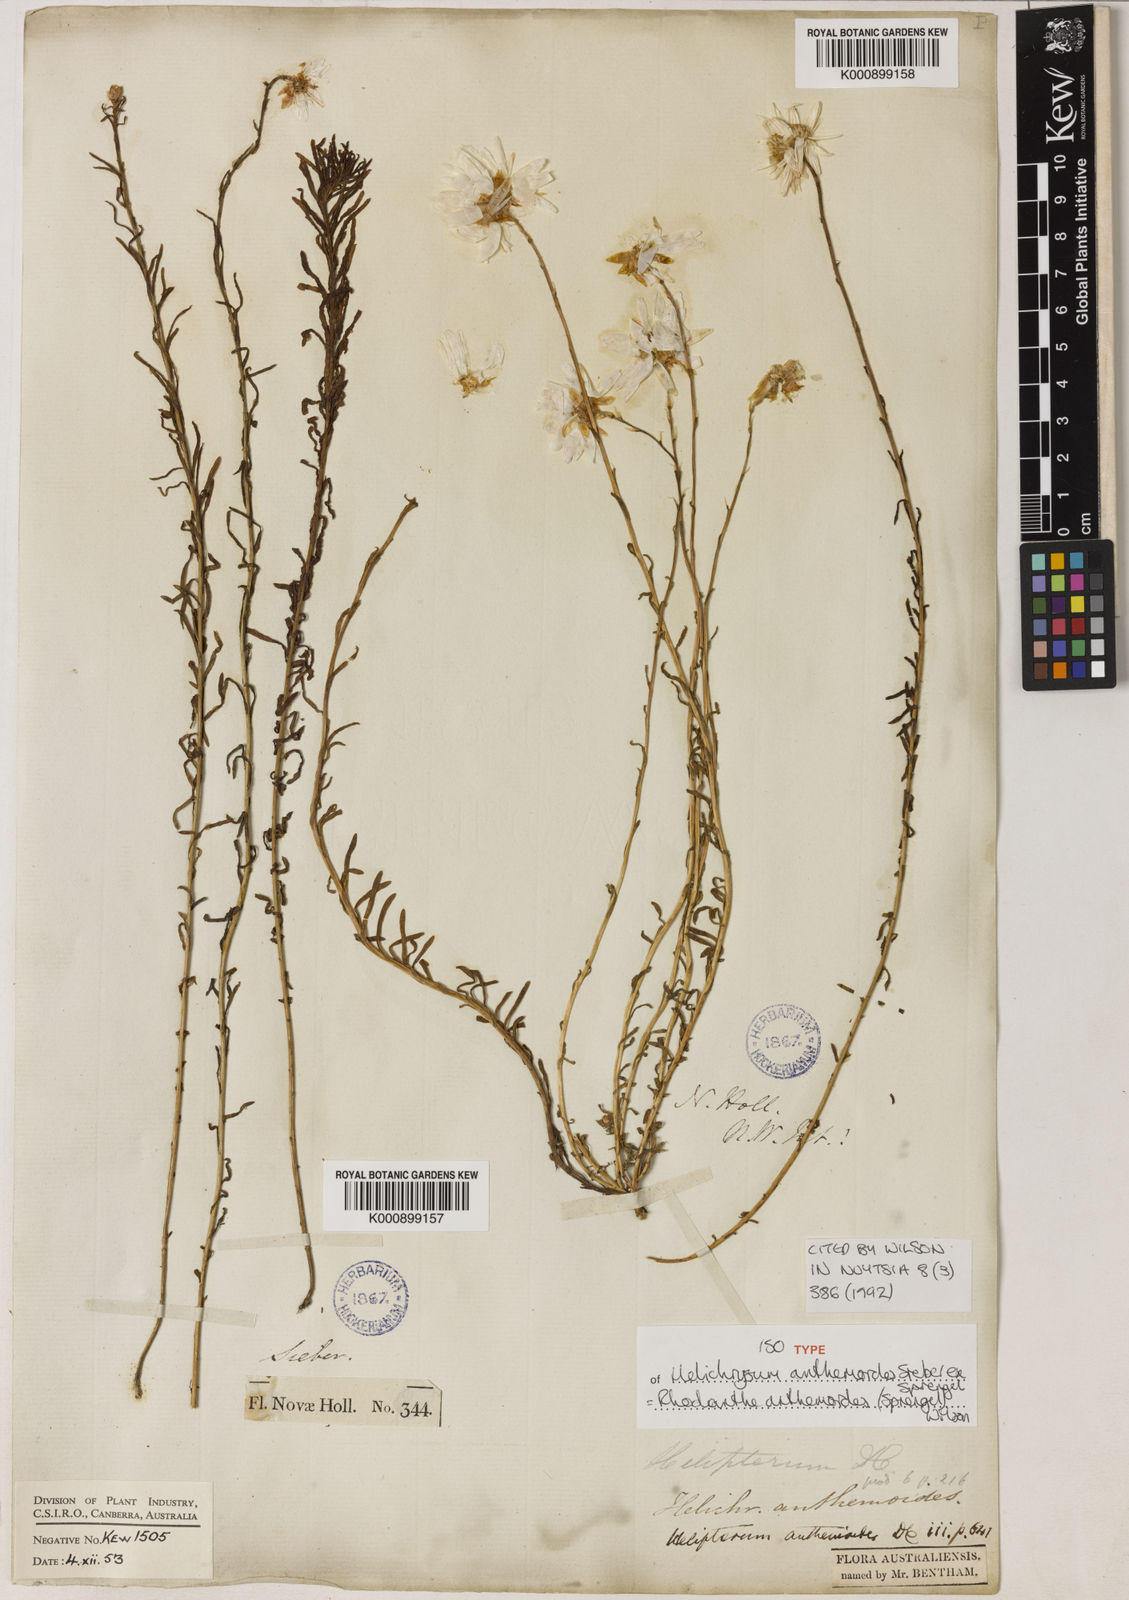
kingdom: Plantae
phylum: Tracheophyta
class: Magnoliopsida
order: Asterales
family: Asteraceae
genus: Rhodanthe
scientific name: Rhodanthe anthemoides
